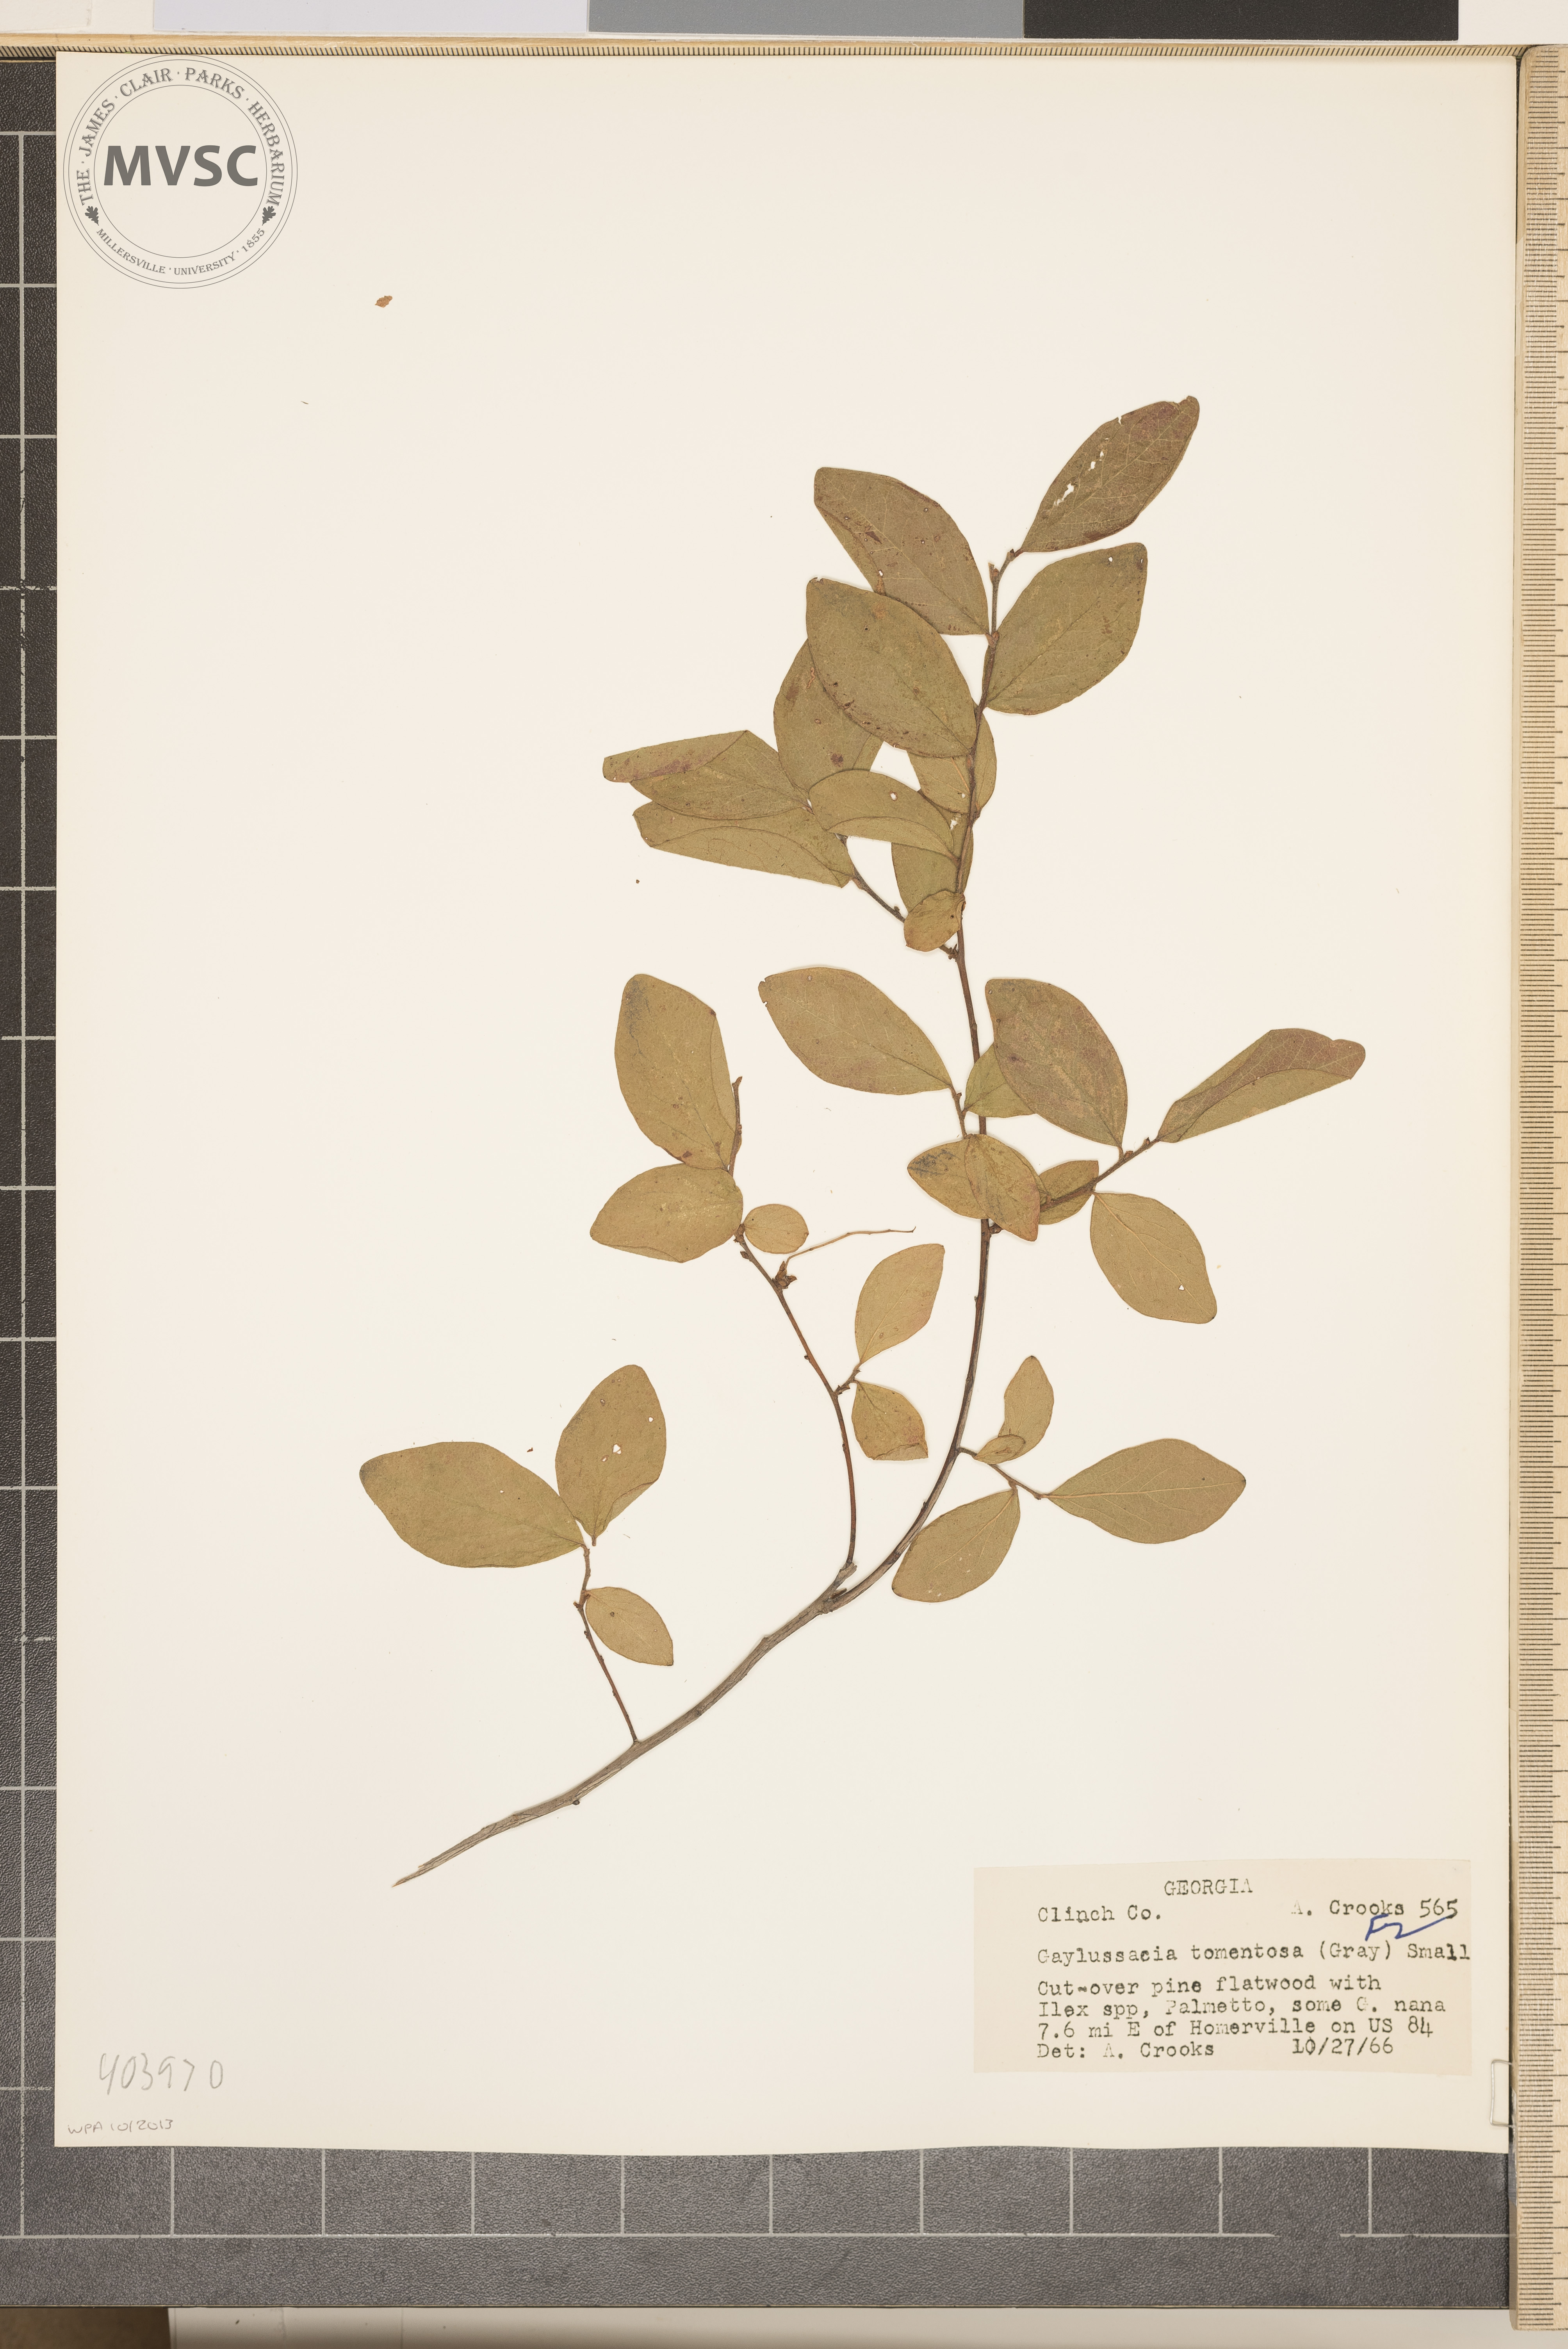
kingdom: Plantae
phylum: Tracheophyta
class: Magnoliopsida
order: Ericales
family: Ericaceae
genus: Gaylussacia
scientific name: Gaylussacia tomentosa
